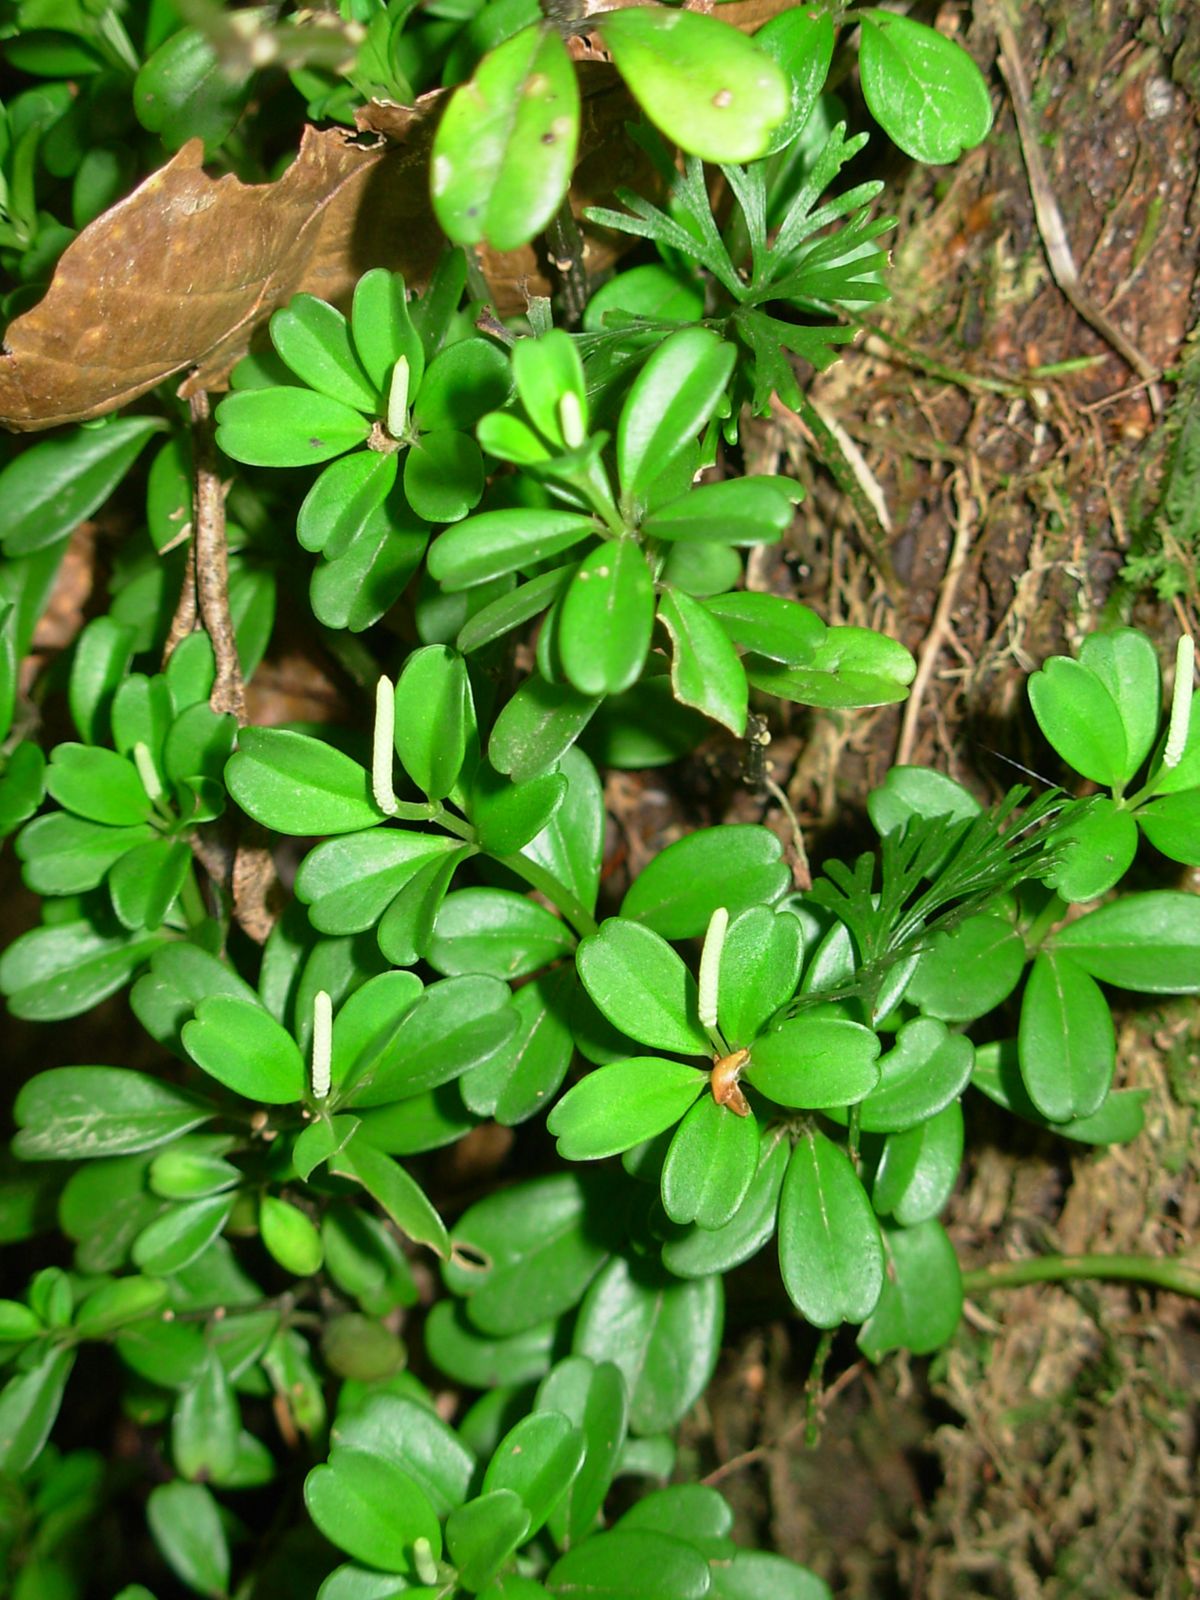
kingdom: Plantae
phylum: Tracheophyta
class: Magnoliopsida
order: Piperales
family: Piperaceae
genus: Peperomia
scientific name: Peperomia quadrifolia
